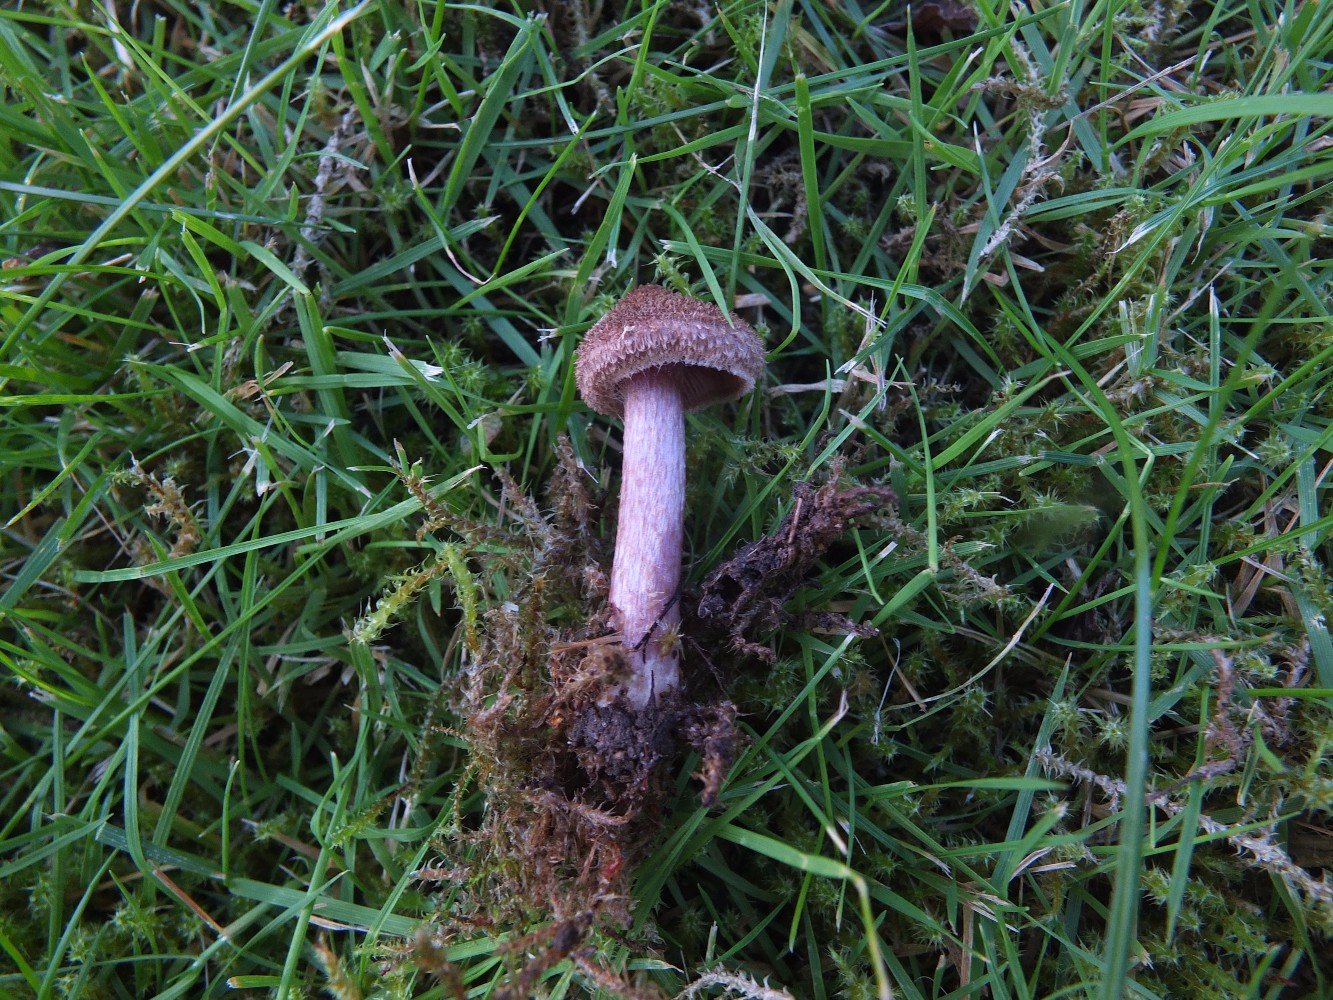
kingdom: Fungi
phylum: Basidiomycota
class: Agaricomycetes
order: Agaricales
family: Inocybaceae
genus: Inocybe
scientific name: Inocybe cincinnata
